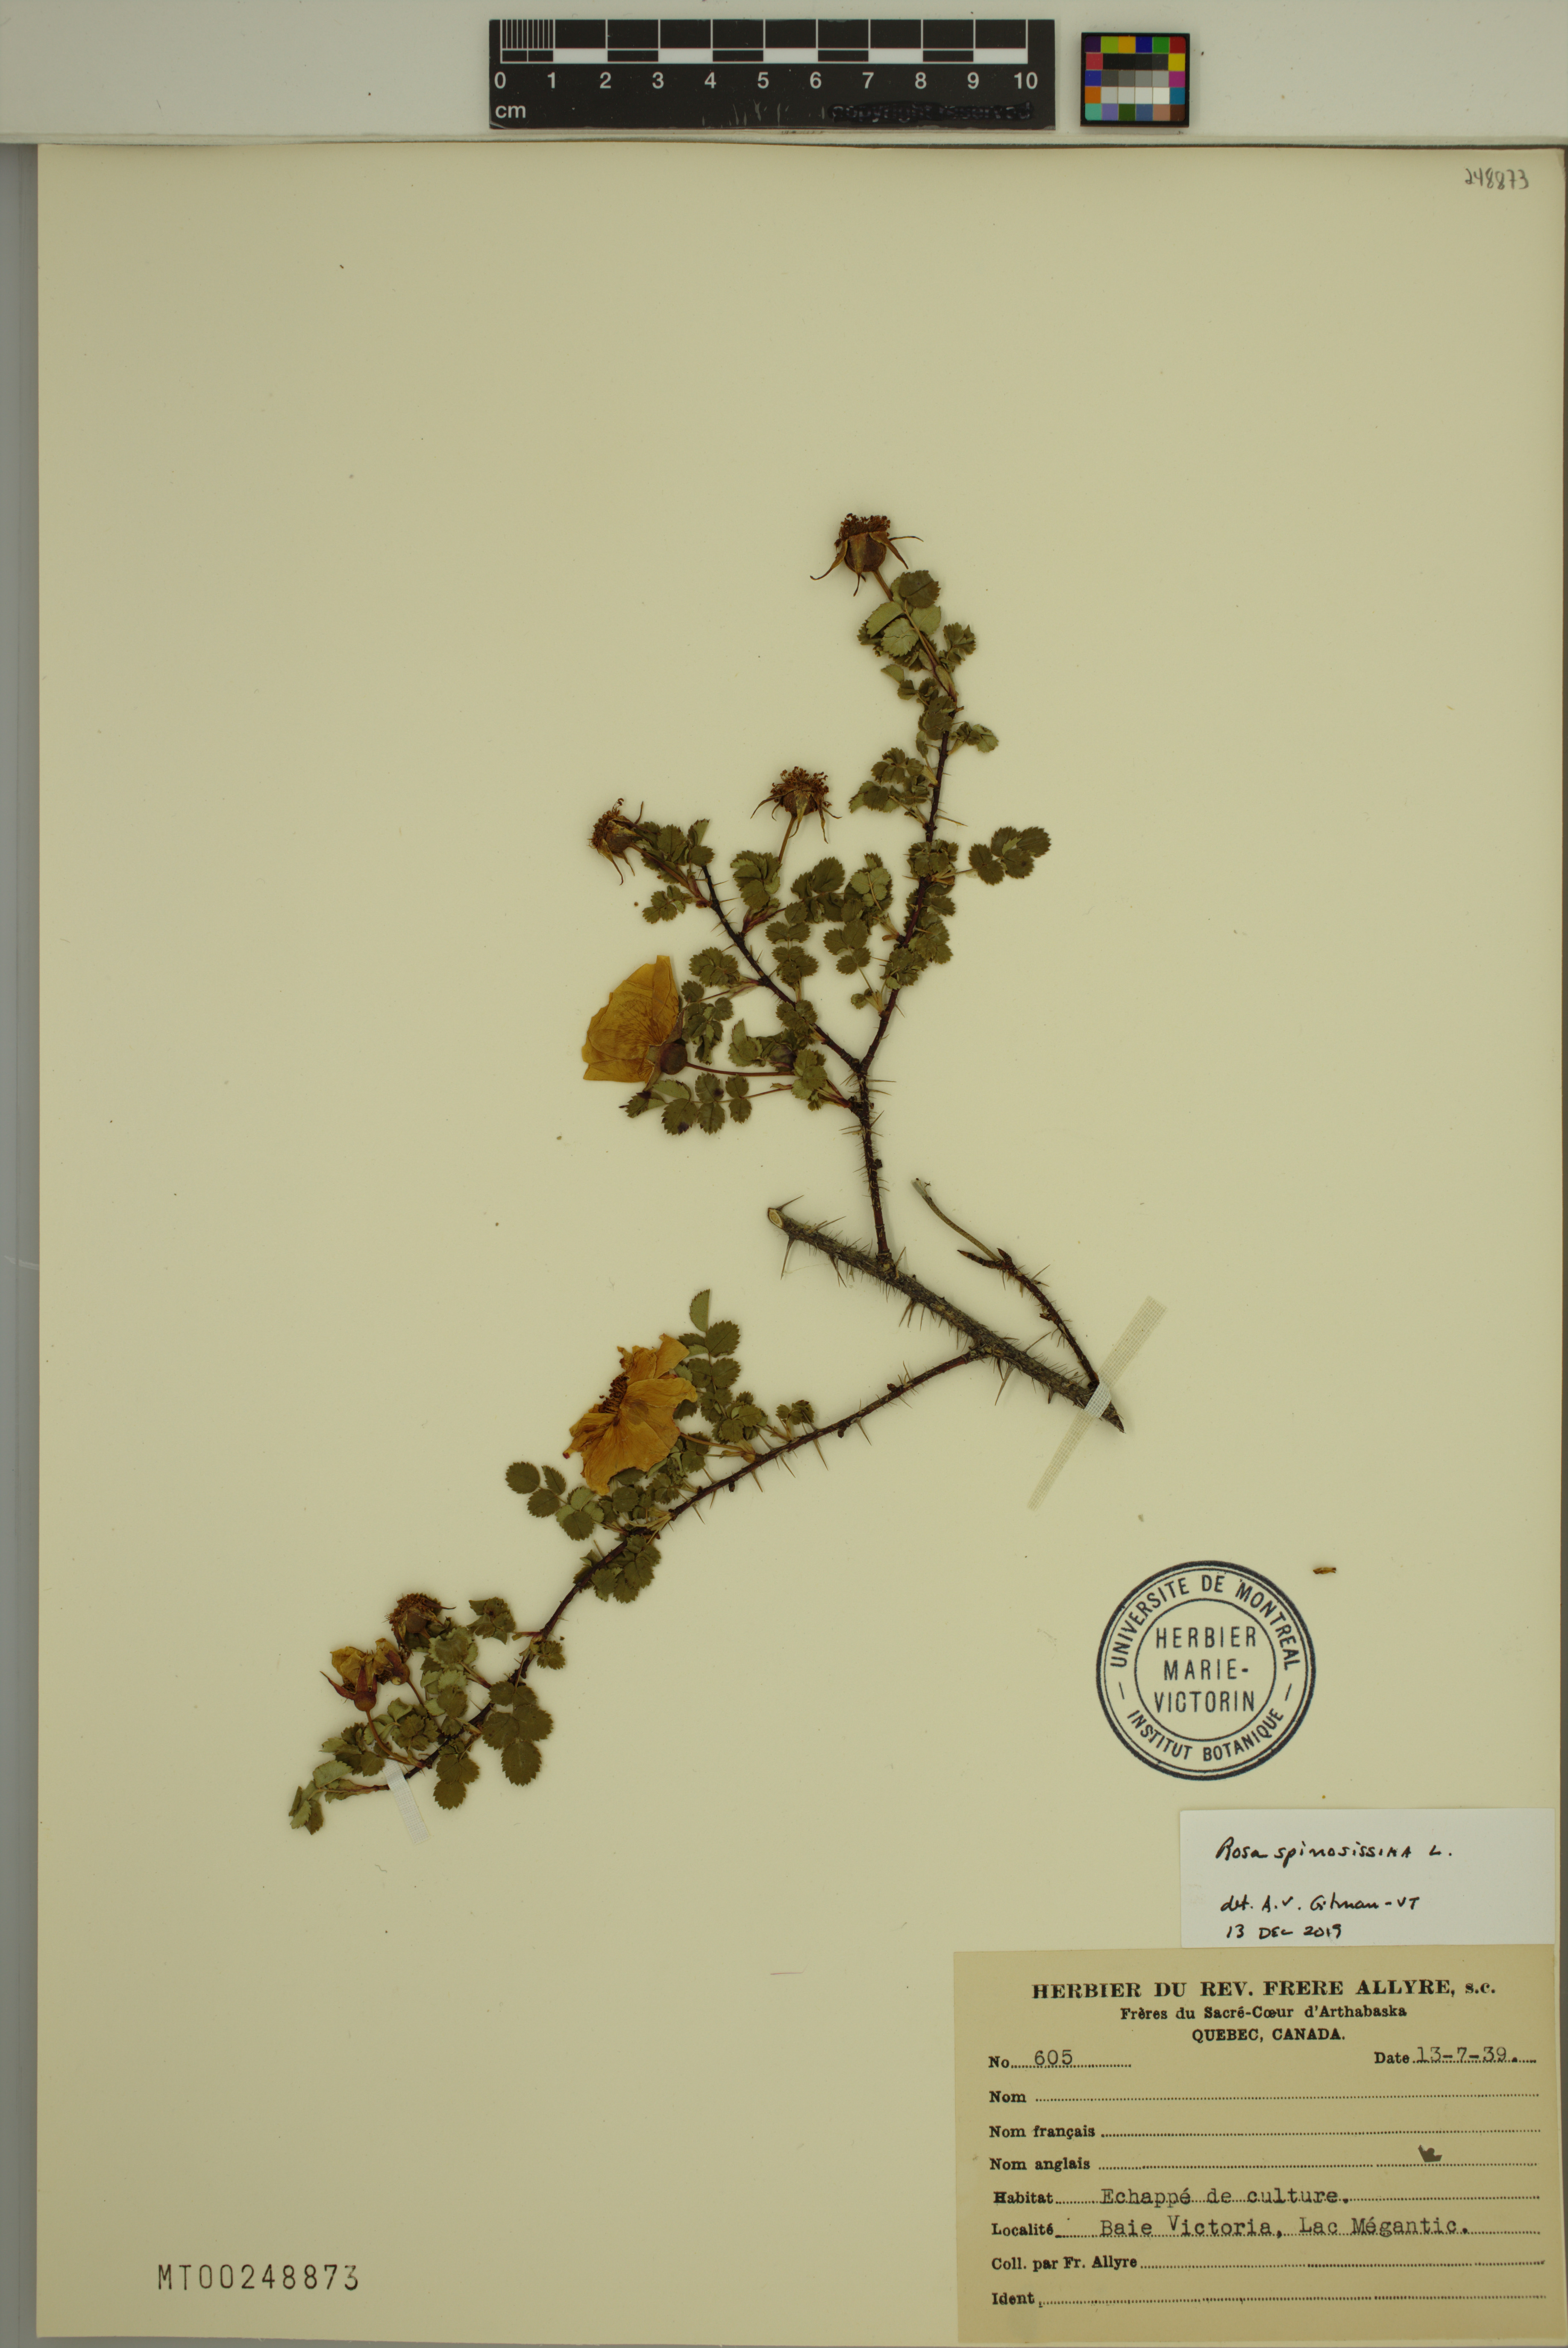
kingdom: Plantae
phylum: Tracheophyta
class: Magnoliopsida
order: Rosales
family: Rosaceae
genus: Rosa
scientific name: Rosa spinosissima
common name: Burnet rose
